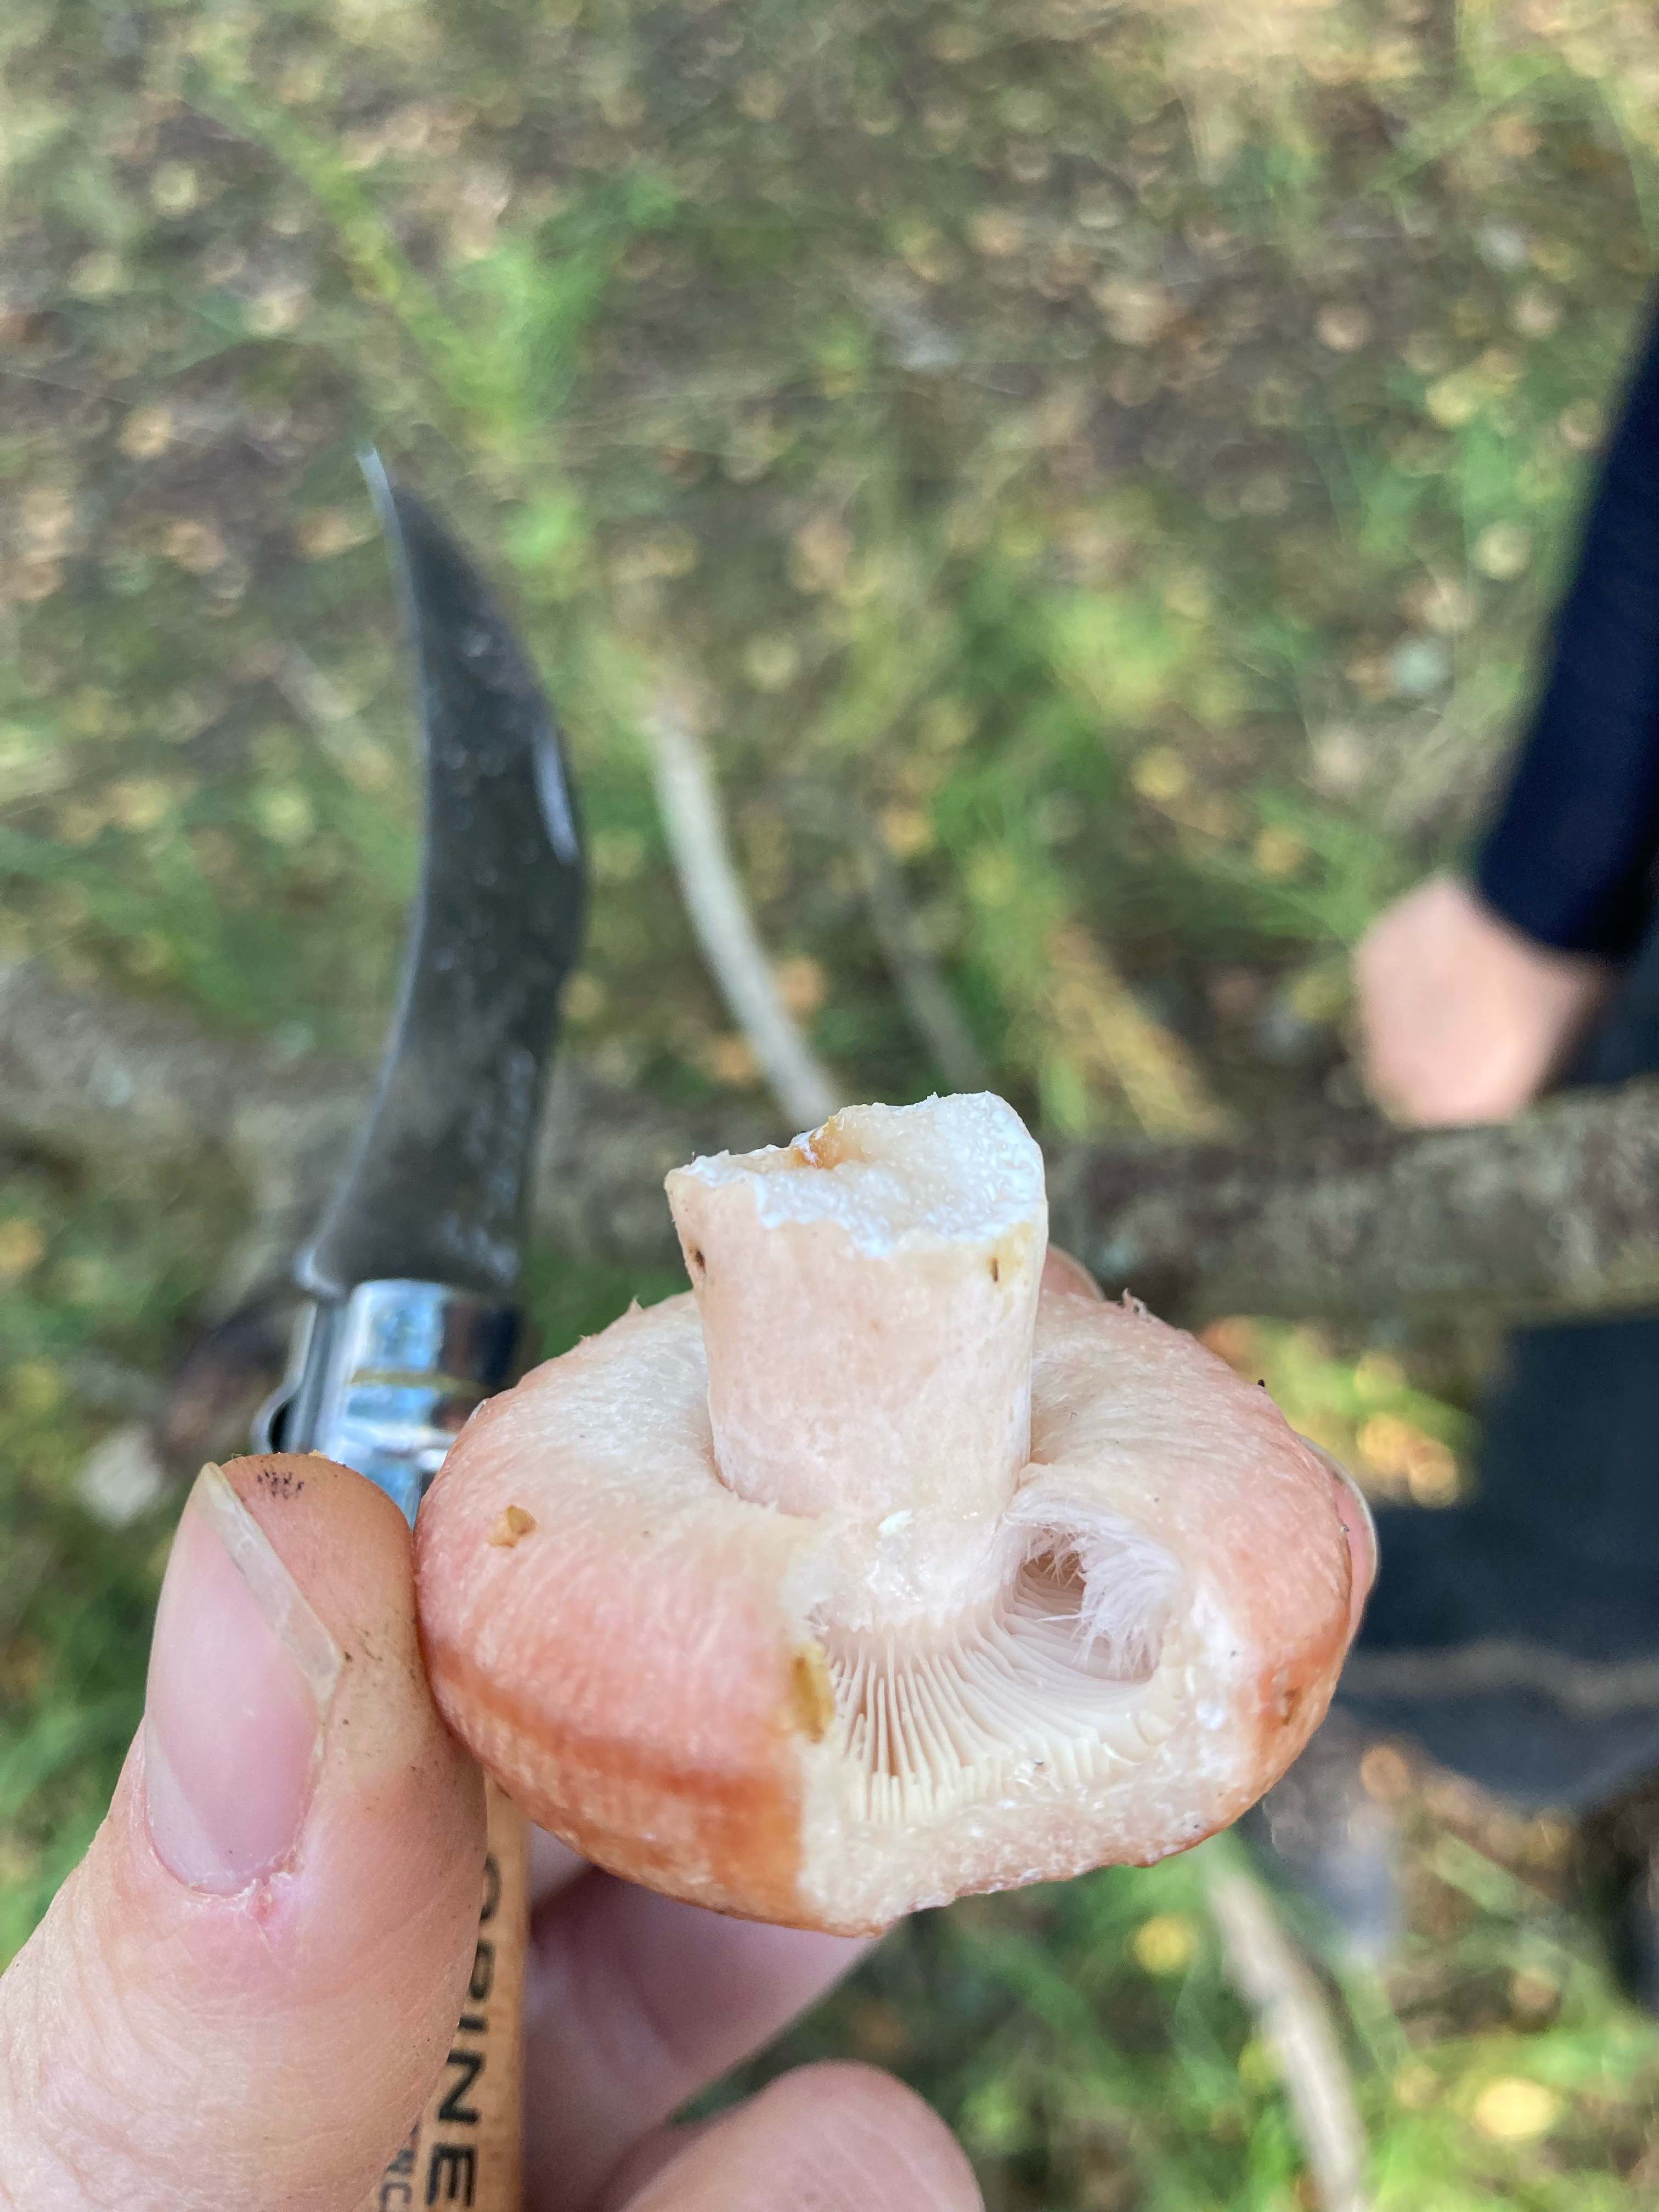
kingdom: Fungi
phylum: Basidiomycota
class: Agaricomycetes
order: Russulales
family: Russulaceae
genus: Lactarius
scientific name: Lactarius torminosus
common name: skægget mælkehat
